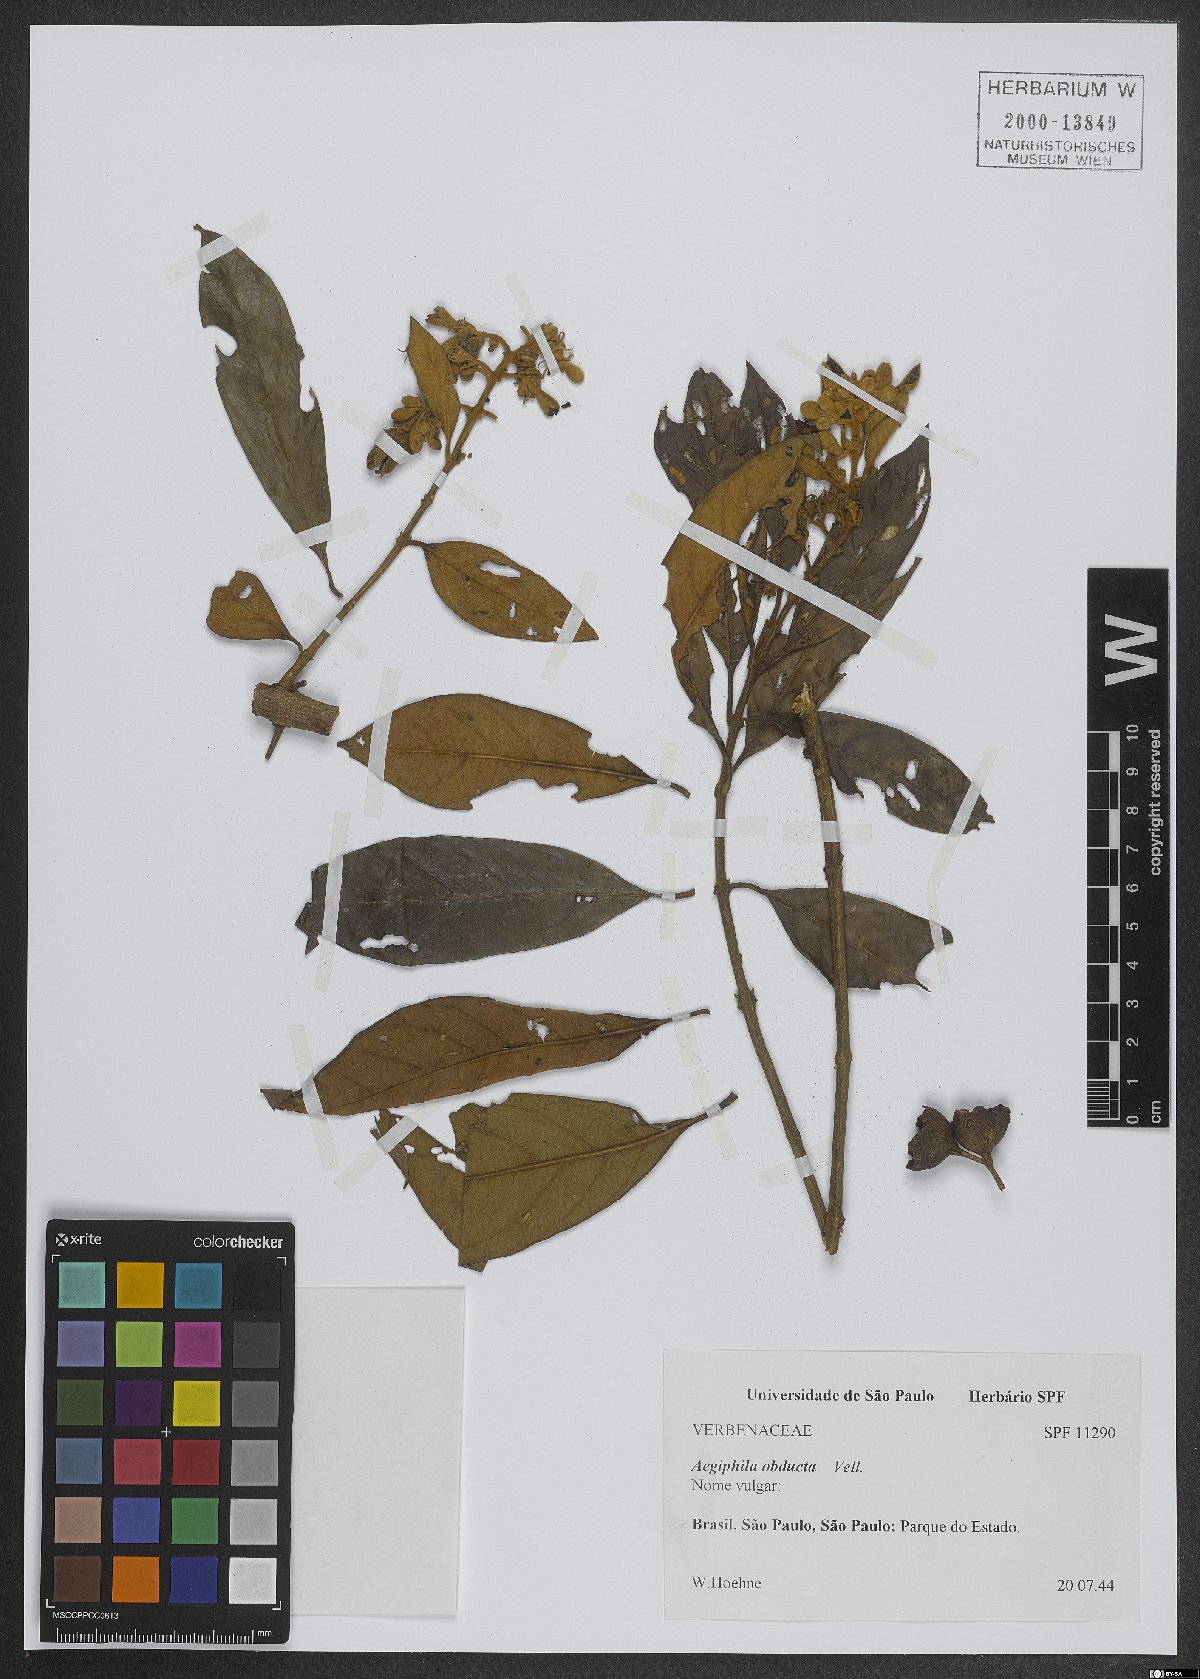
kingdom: Plantae
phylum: Tracheophyta
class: Magnoliopsida
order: Lamiales
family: Lamiaceae
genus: Aegiphila
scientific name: Aegiphila obducta
